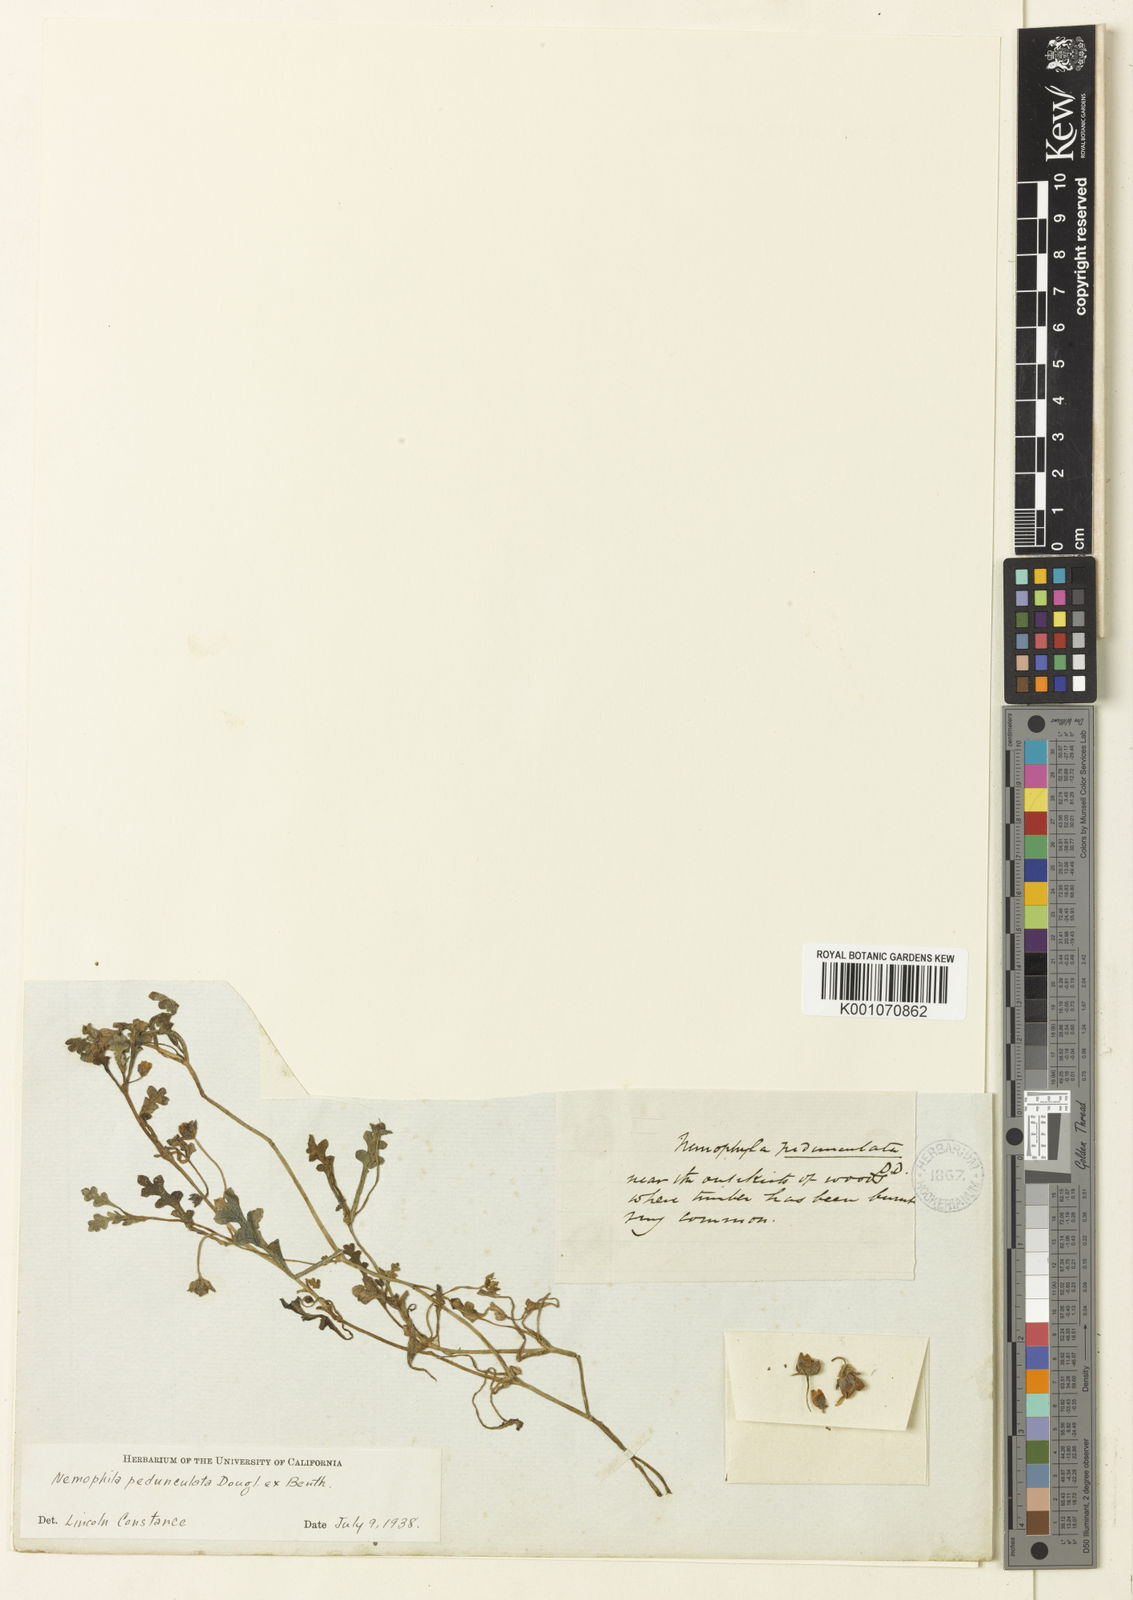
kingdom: Plantae
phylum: Tracheophyta
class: Magnoliopsida
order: Boraginales
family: Hydrophyllaceae
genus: Nemophila
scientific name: Nemophila
